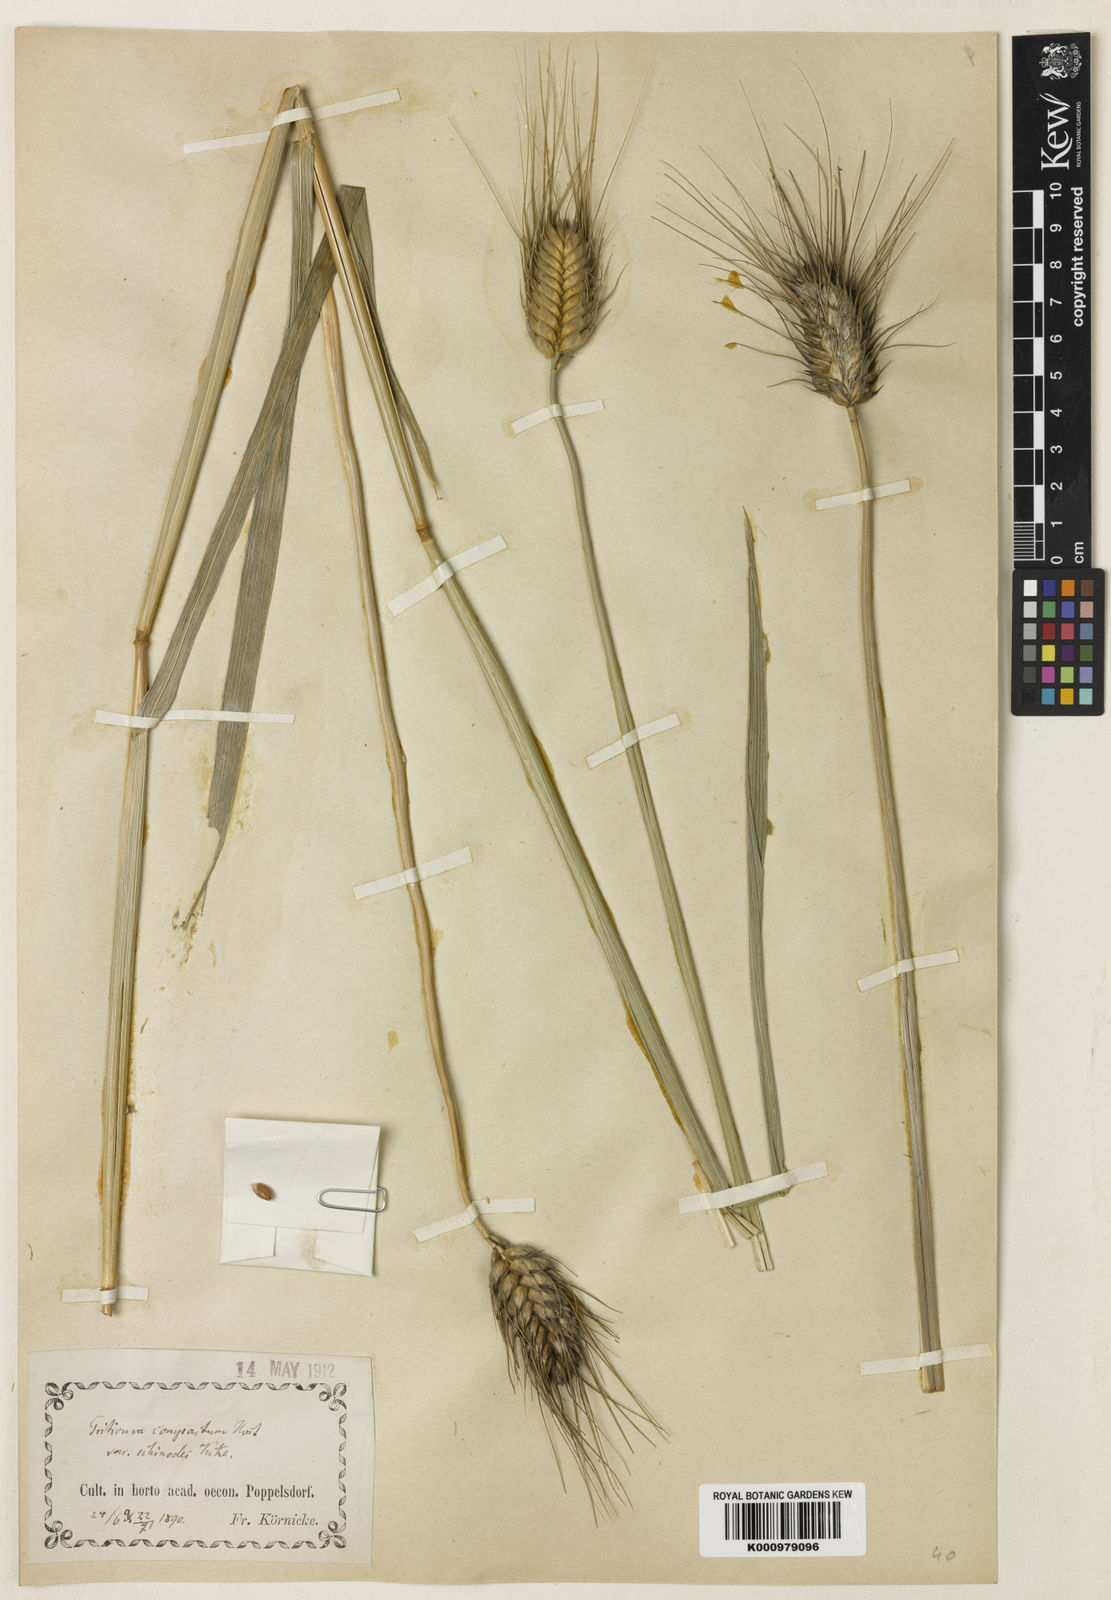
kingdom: Plantae
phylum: Tracheophyta
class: Liliopsida
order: Poales
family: Poaceae
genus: Triticum
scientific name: Triticum aestivum
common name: Common wheat
